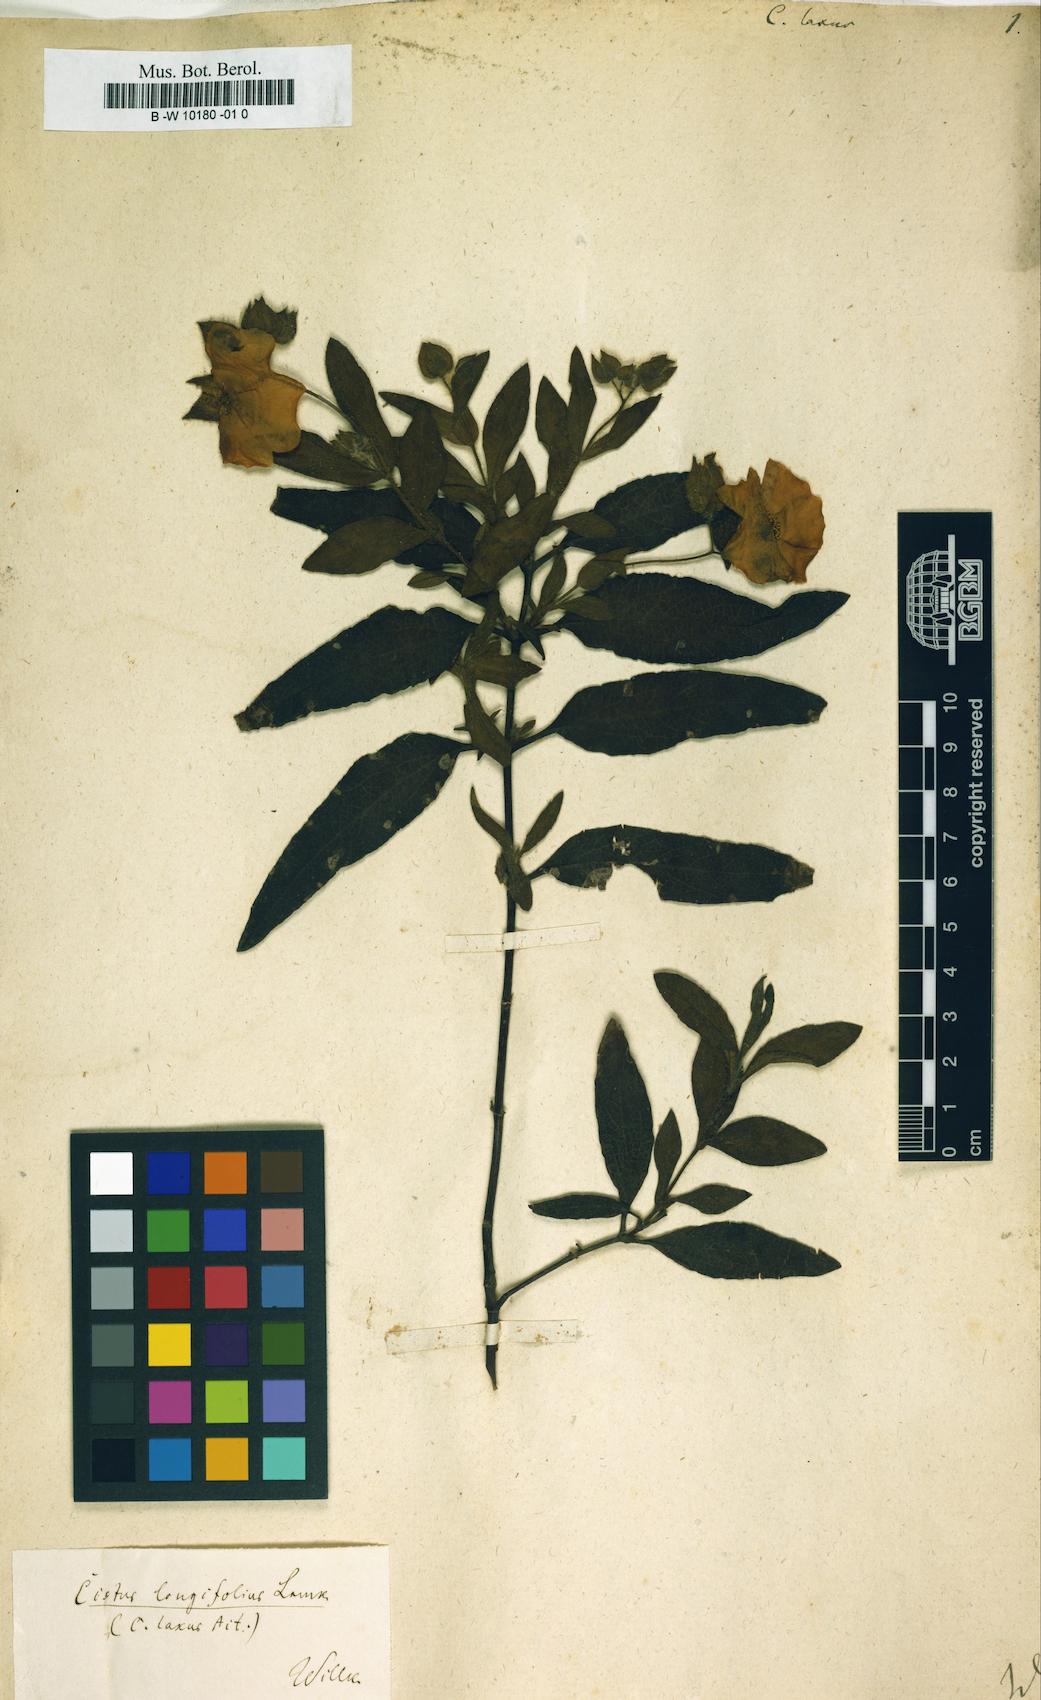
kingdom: Plantae
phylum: Tracheophyta
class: Magnoliopsida
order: Malvales
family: Cistaceae
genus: Cistus
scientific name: Cistus laxus
